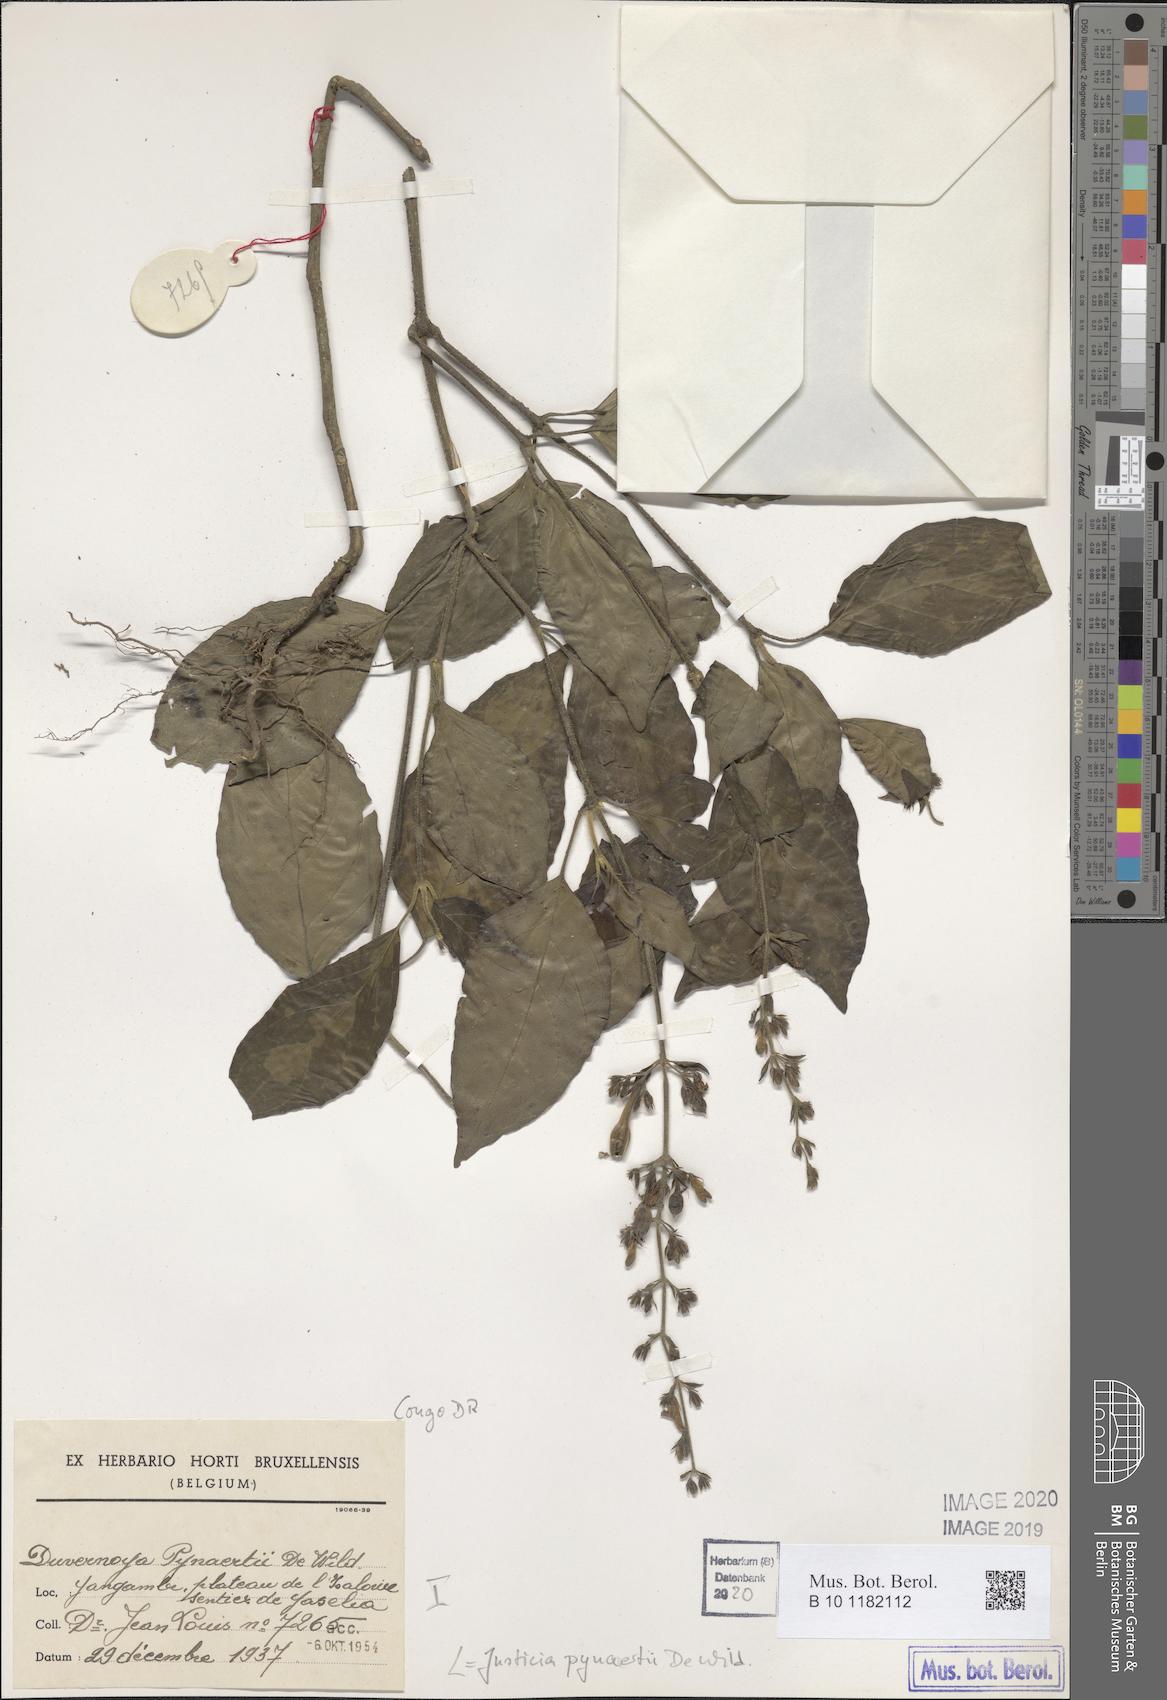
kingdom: Plantae
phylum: Tracheophyta
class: Magnoliopsida
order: Lamiales
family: Acanthaceae
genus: Justicia
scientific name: Justicia laxa
